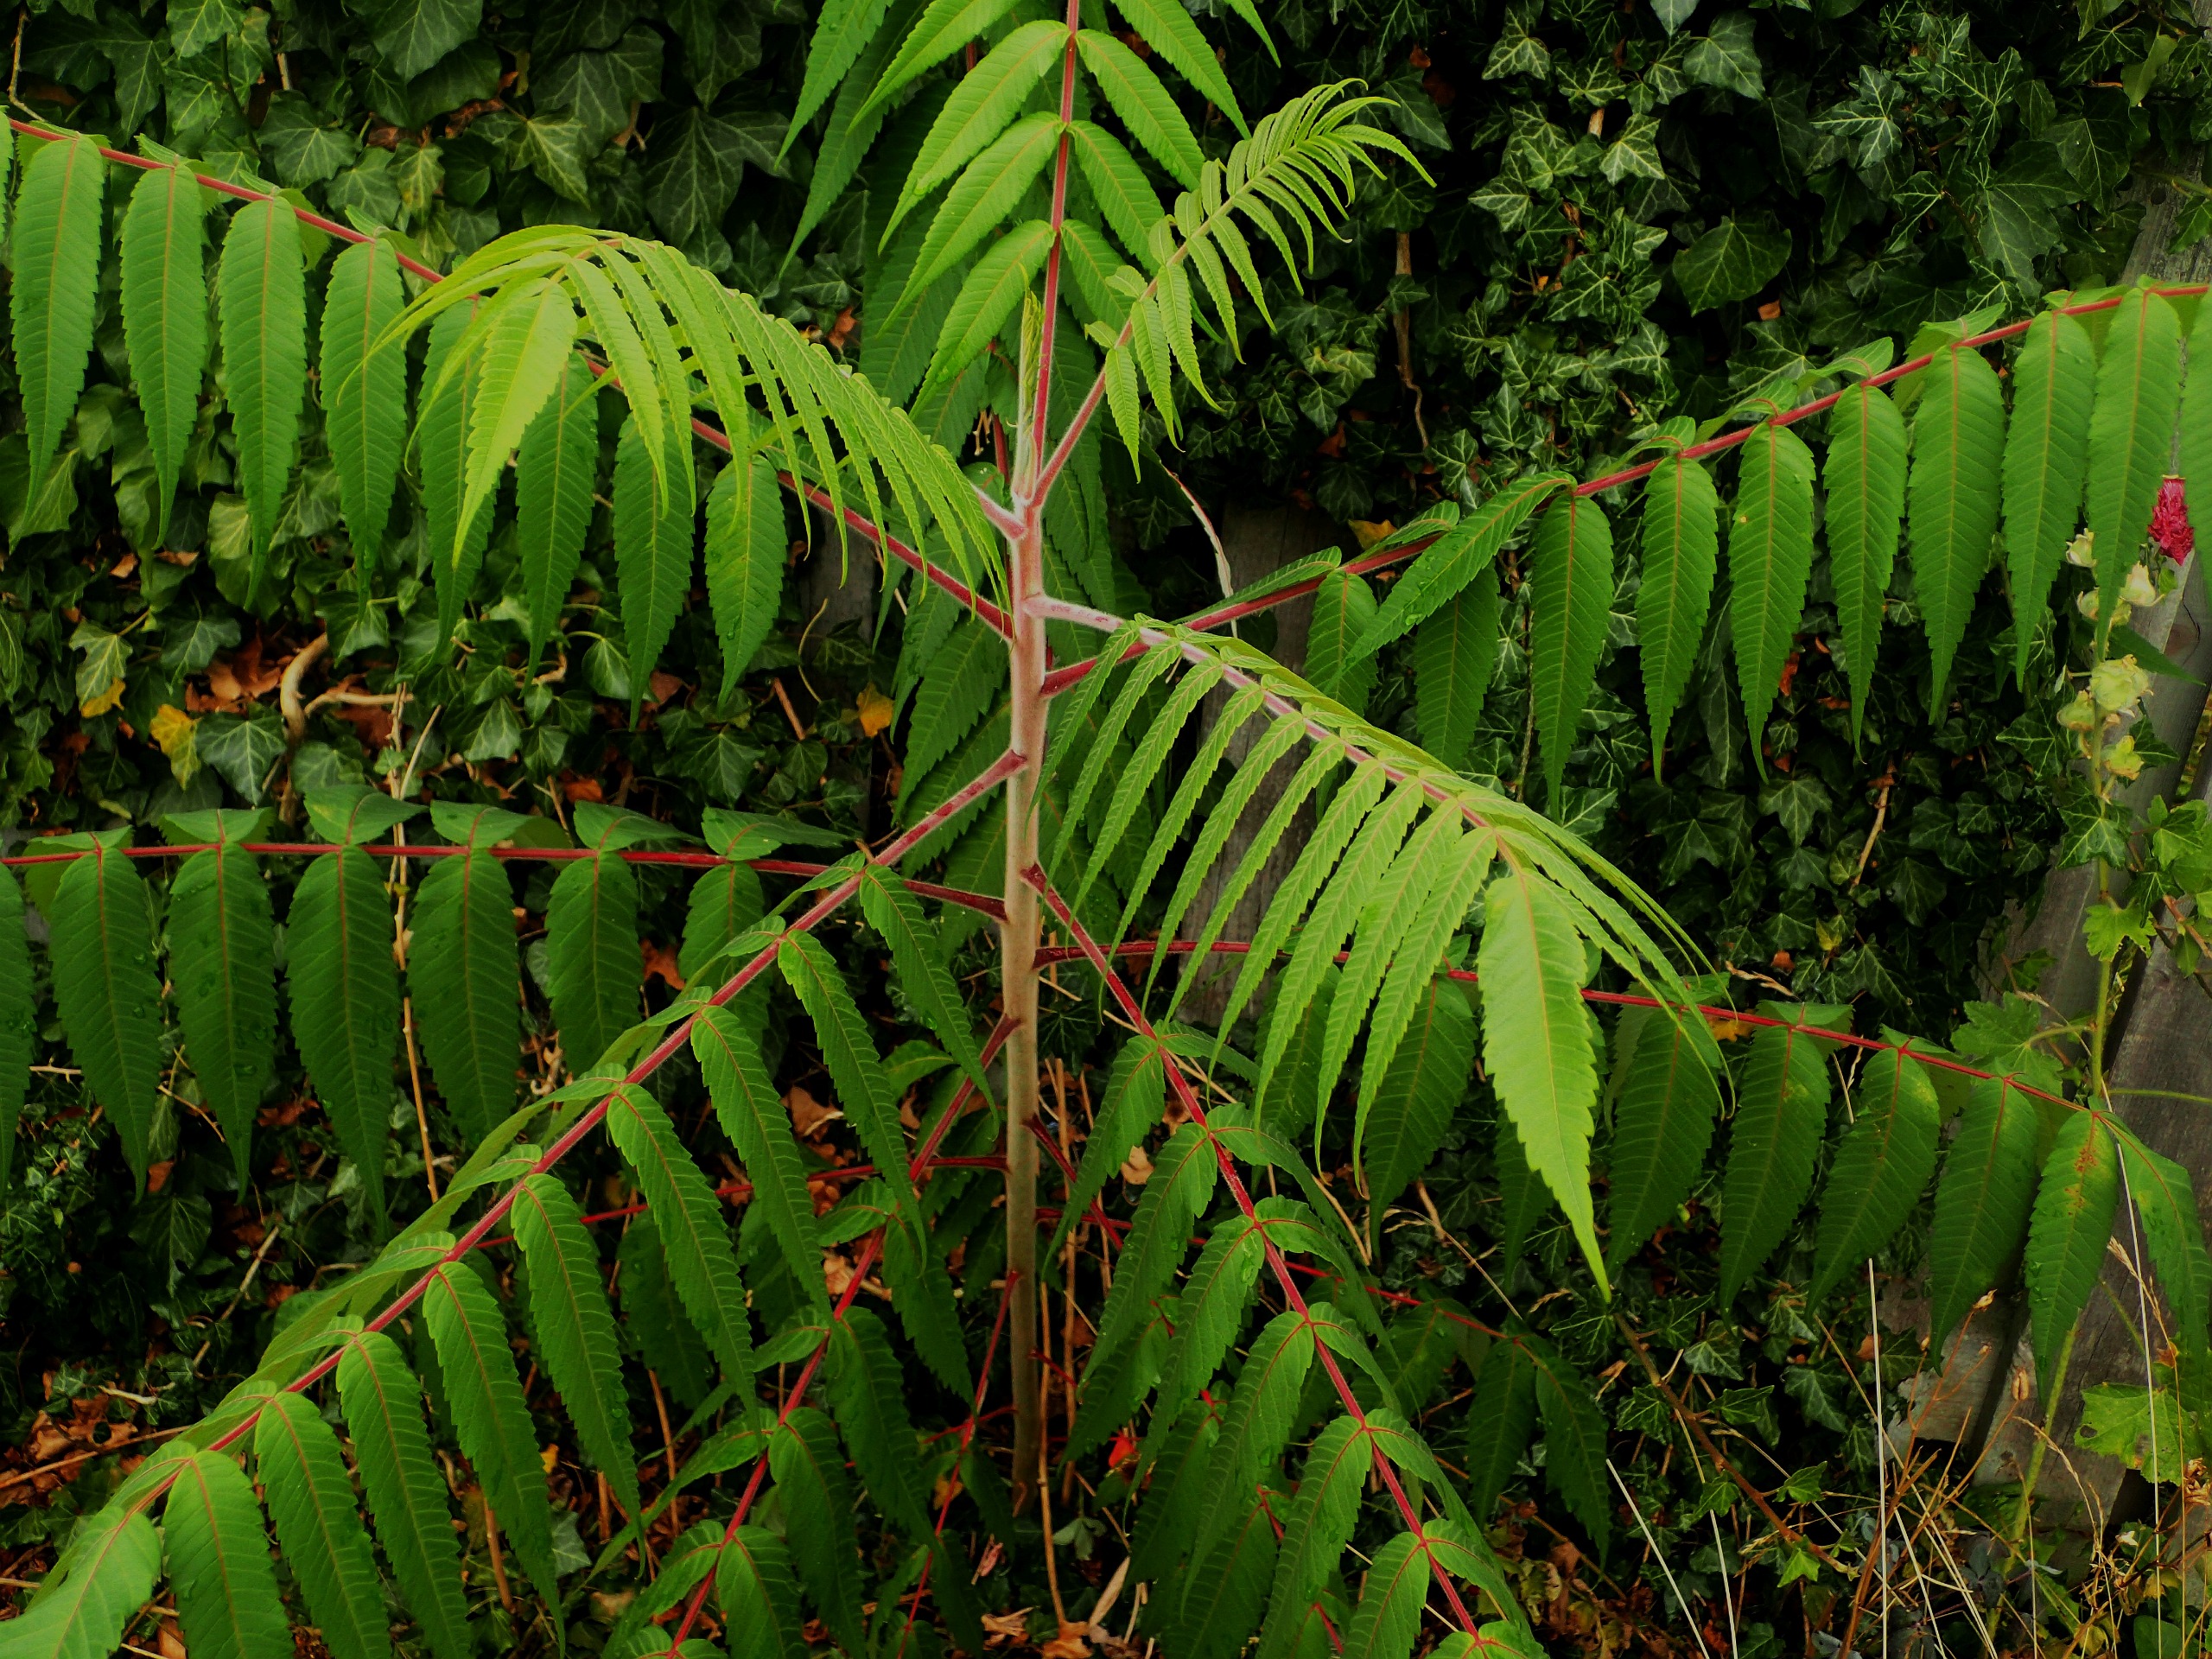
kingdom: Plantae
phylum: Tracheophyta
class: Magnoliopsida
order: Sapindales
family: Anacardiaceae
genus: Rhus
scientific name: Rhus typhina
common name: Hjortetaktræ
